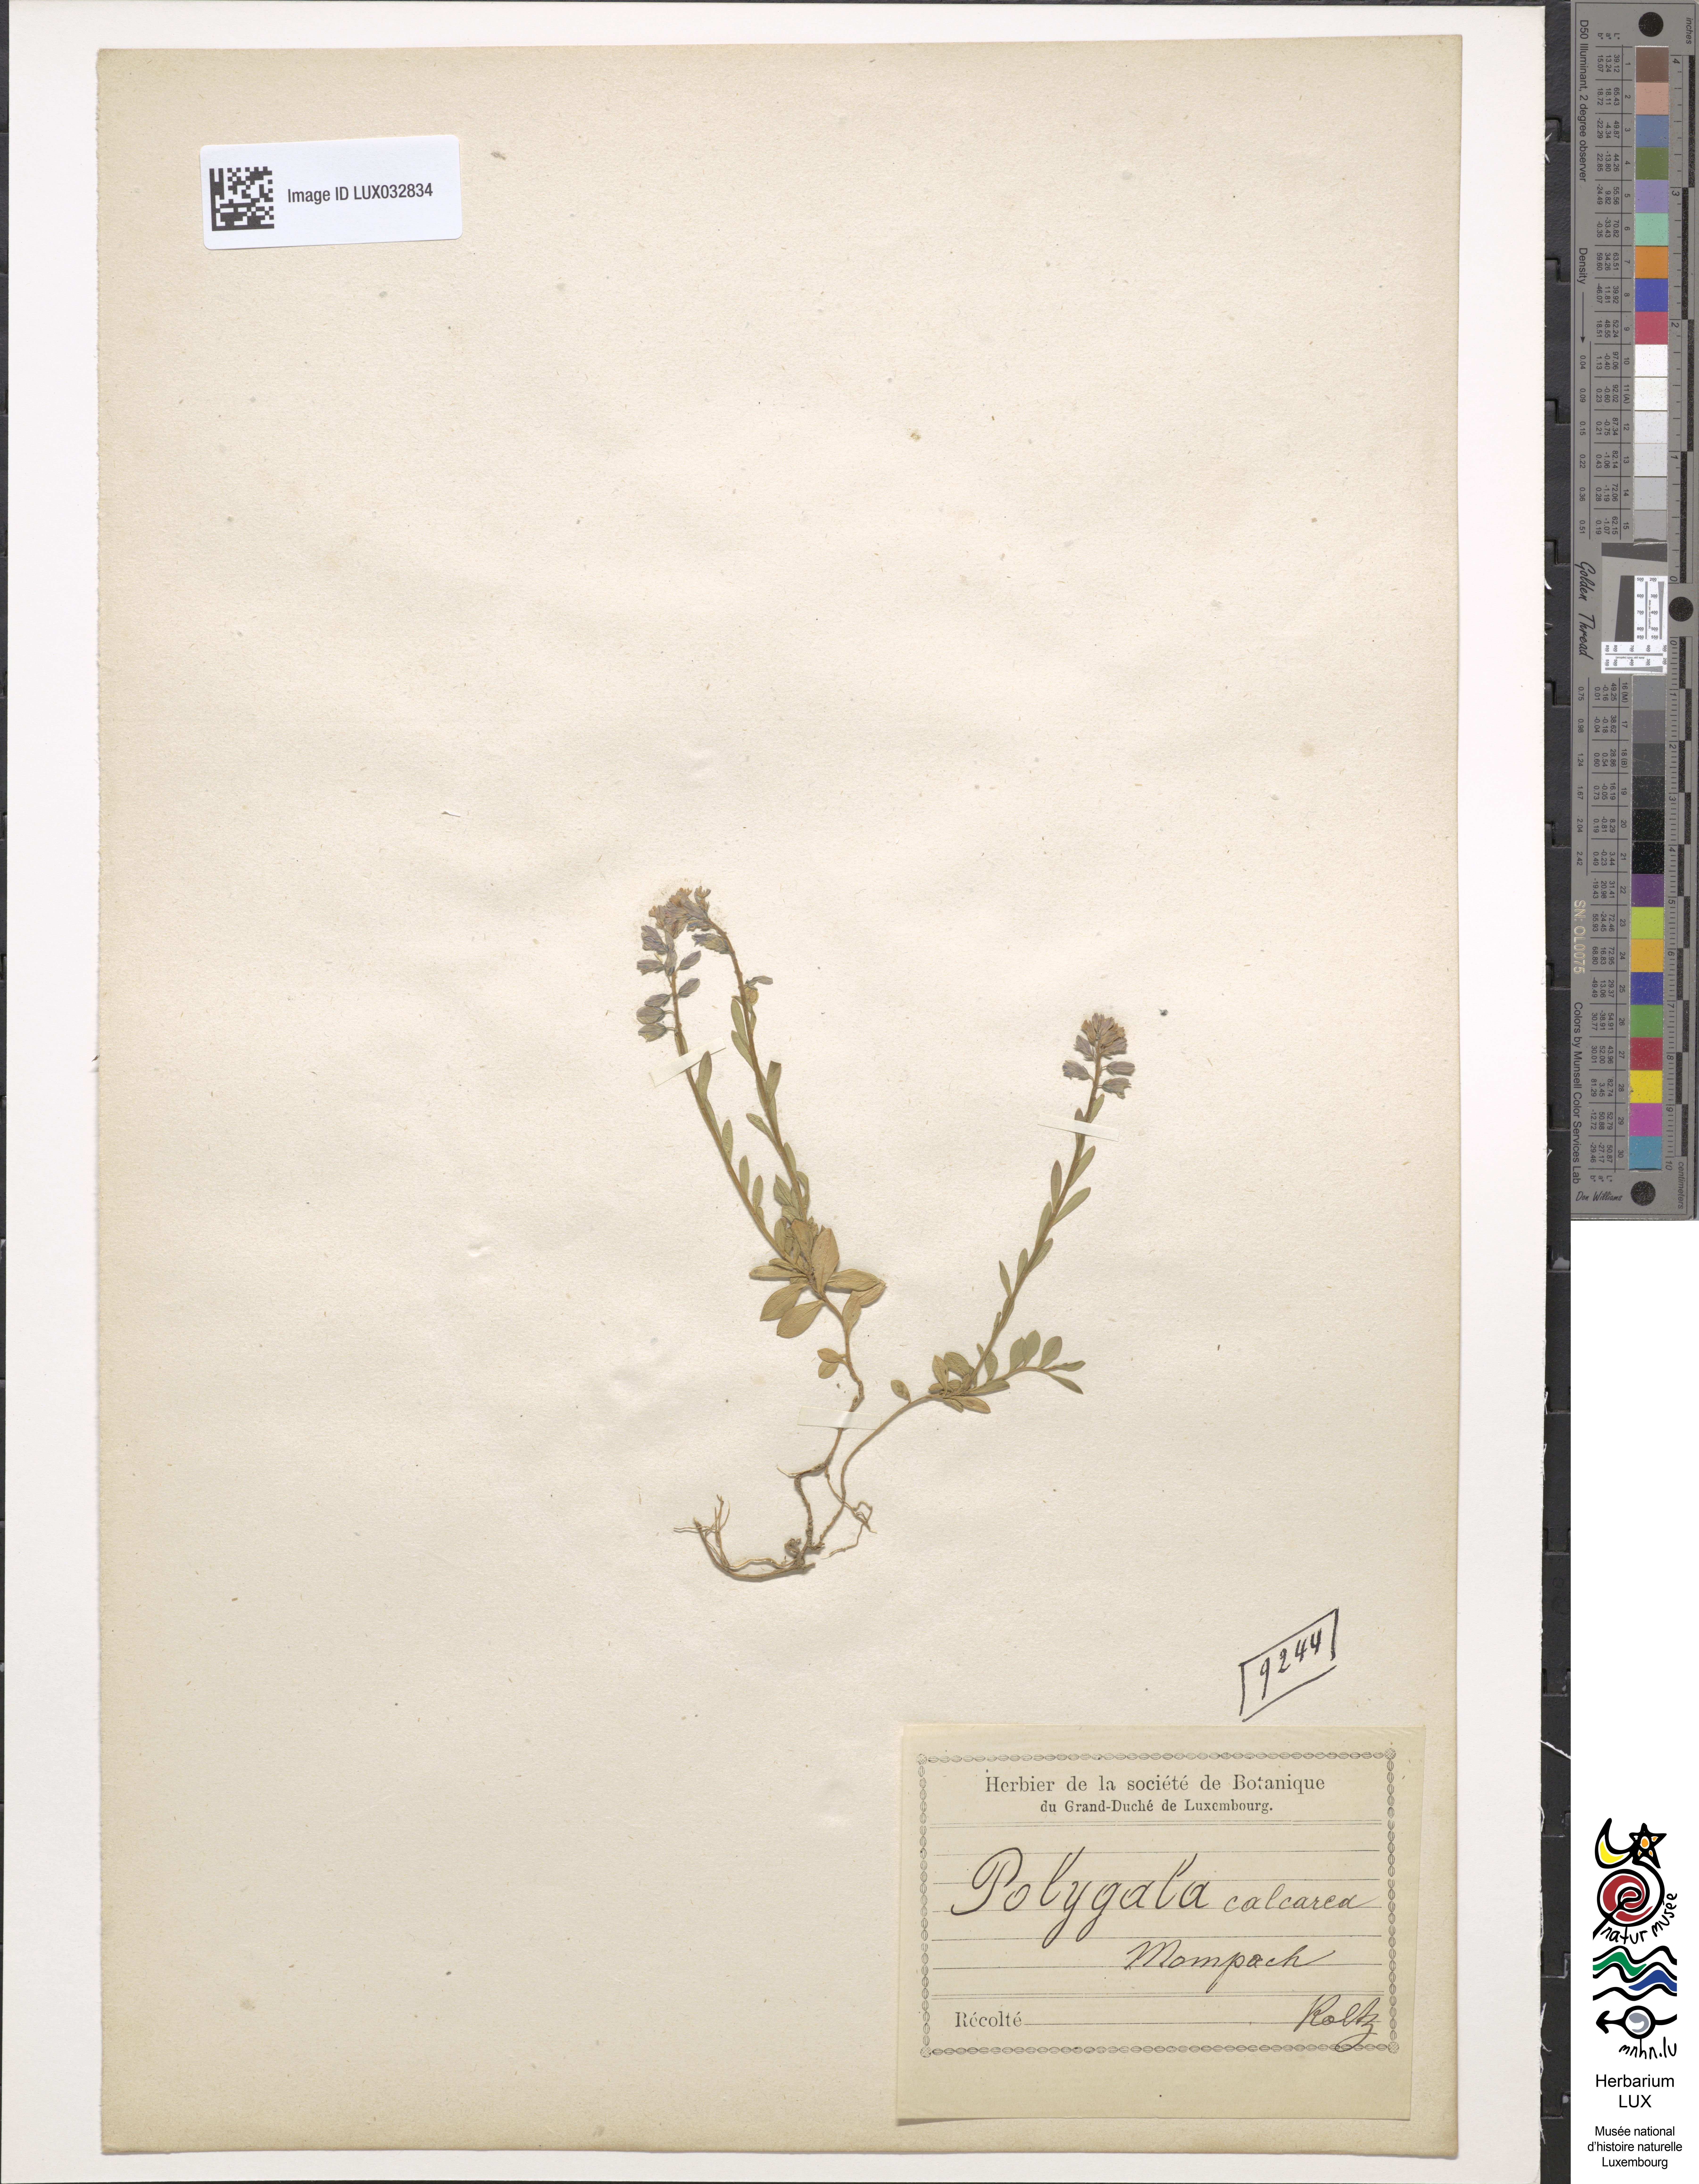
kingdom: Plantae
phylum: Tracheophyta
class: Magnoliopsida
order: Fabales
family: Polygalaceae
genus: Polygala
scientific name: Polygala calcarea
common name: Chalk milkwort
